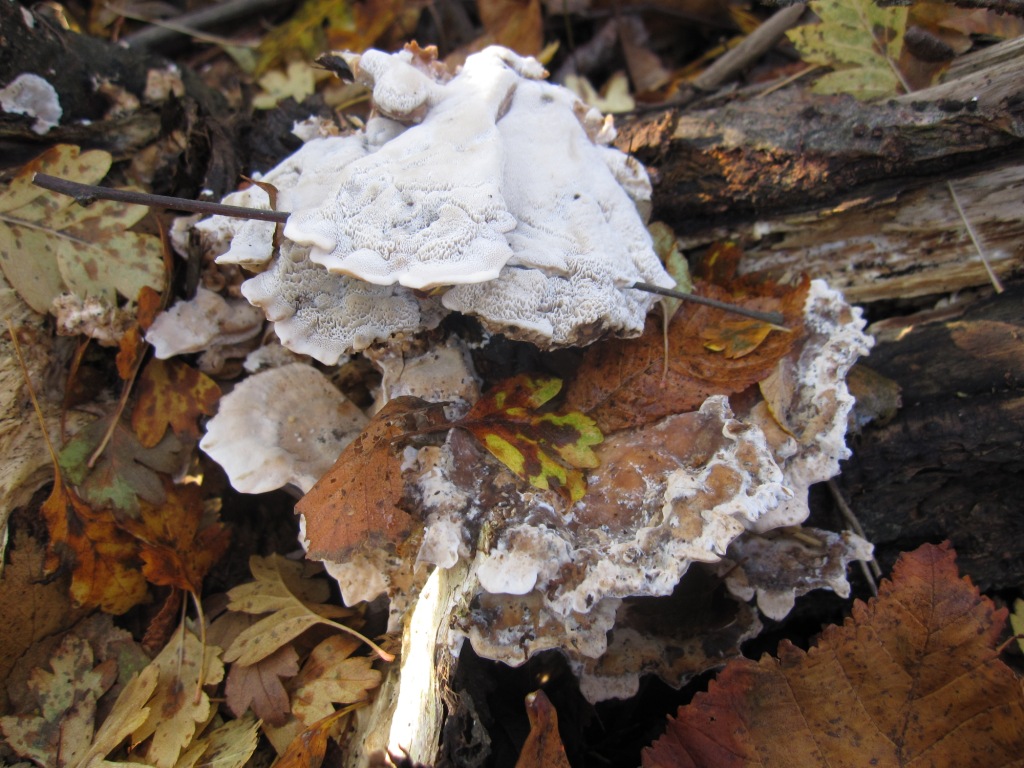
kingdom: Fungi
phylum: Basidiomycota
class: Agaricomycetes
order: Polyporales
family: Phanerochaetaceae
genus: Bjerkandera
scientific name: Bjerkandera fumosa
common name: grågul sodporesvamp
